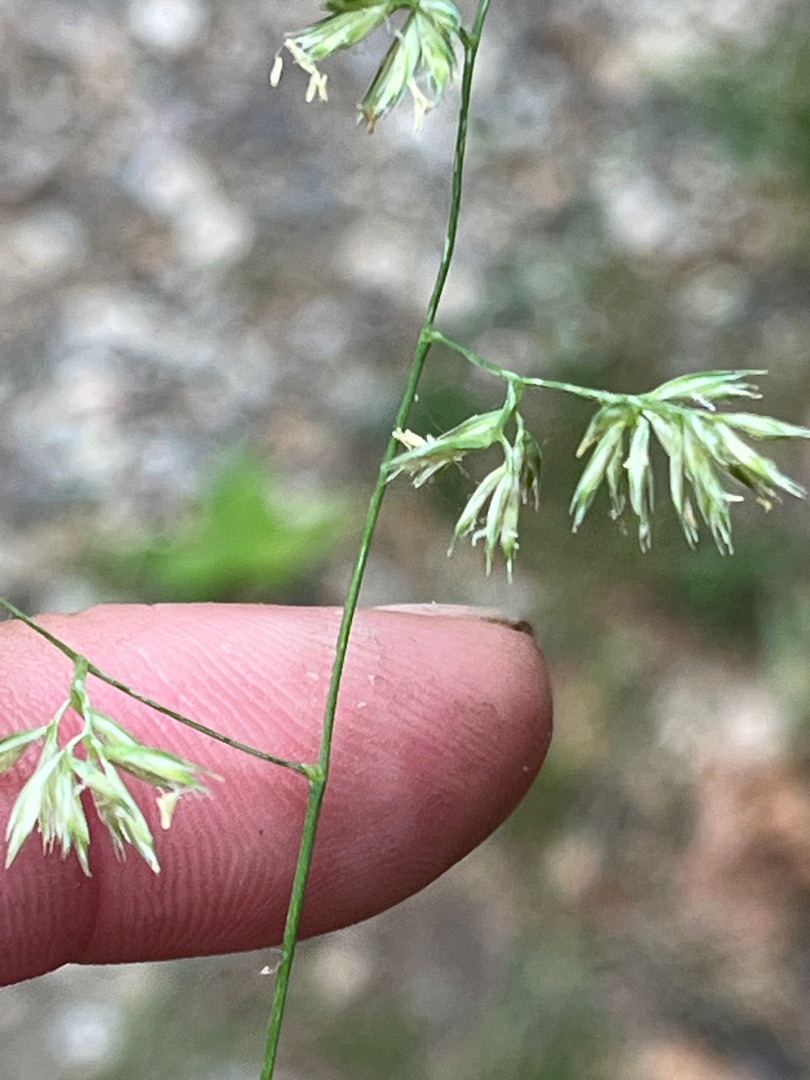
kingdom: Plantae
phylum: Tracheophyta
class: Liliopsida
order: Poales
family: Poaceae
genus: Dactylis
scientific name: Dactylis glomerata
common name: Skov-hundegræs
